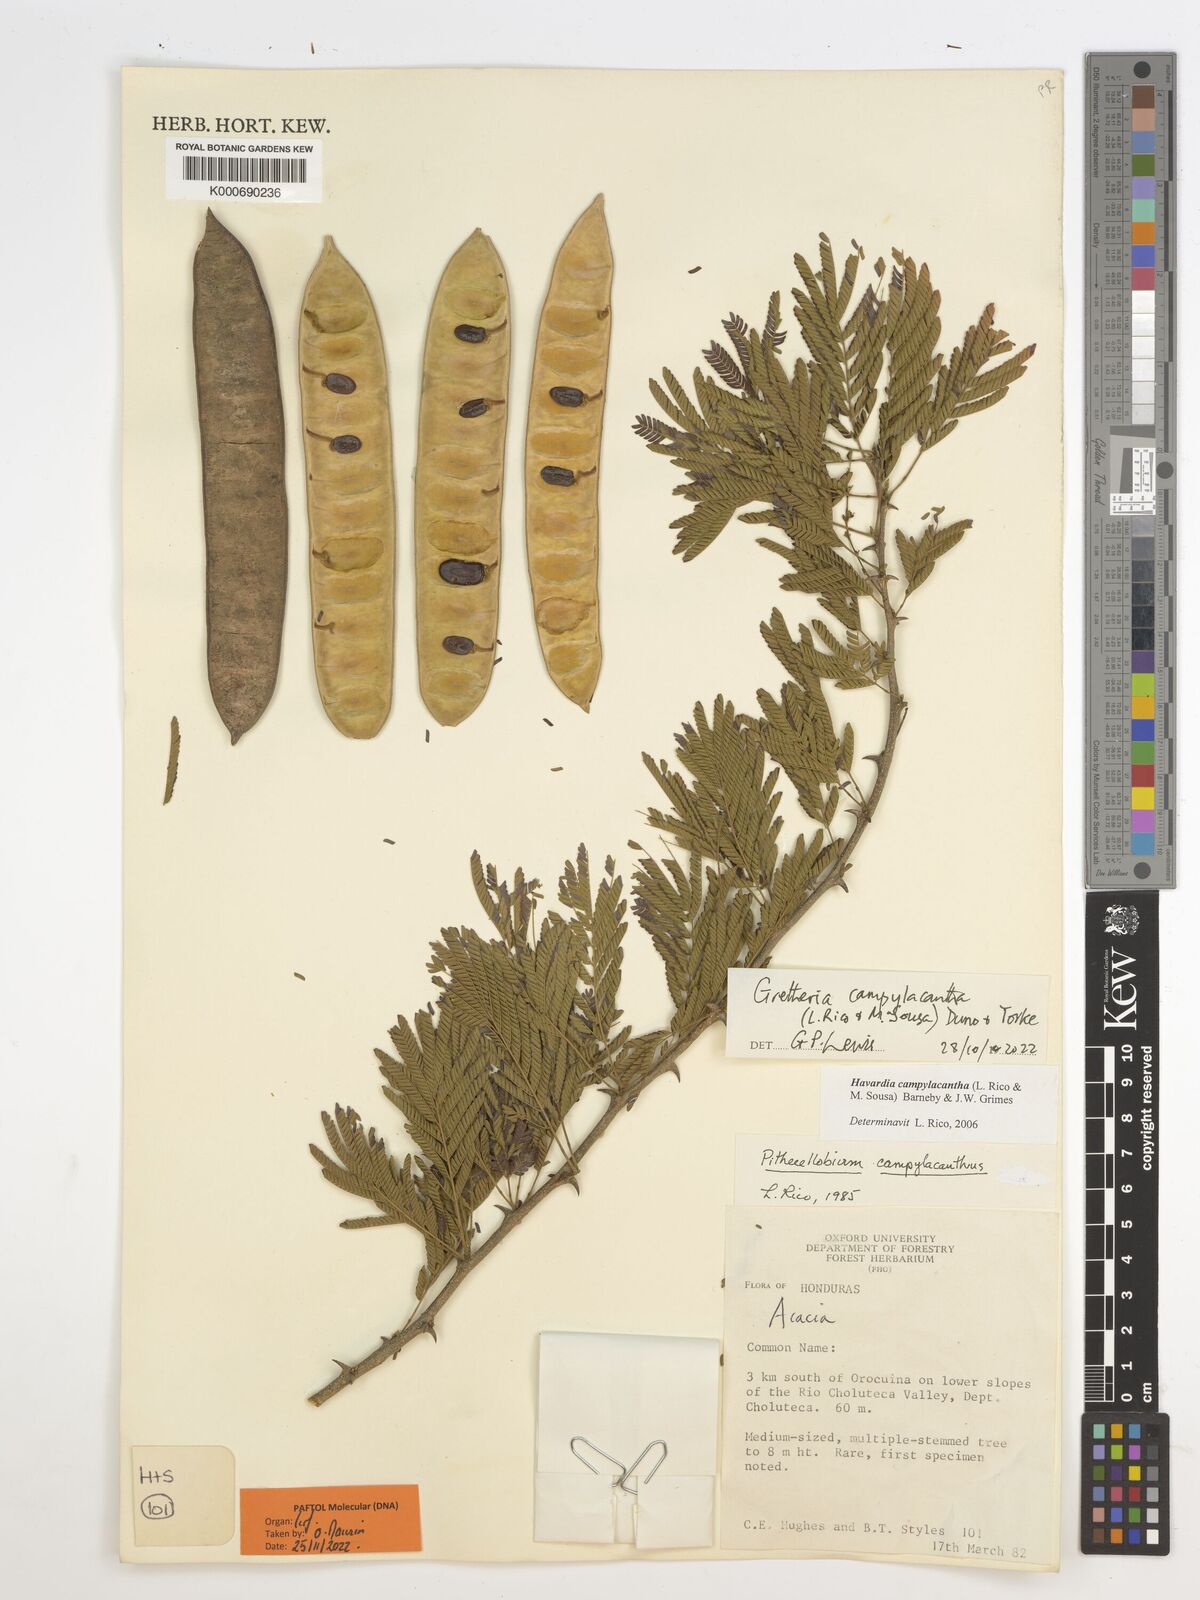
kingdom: Plantae
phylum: Tracheophyta
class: Magnoliopsida
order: Fabales
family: Fabaceae
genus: Havardia
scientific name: Havardia campylacantha
